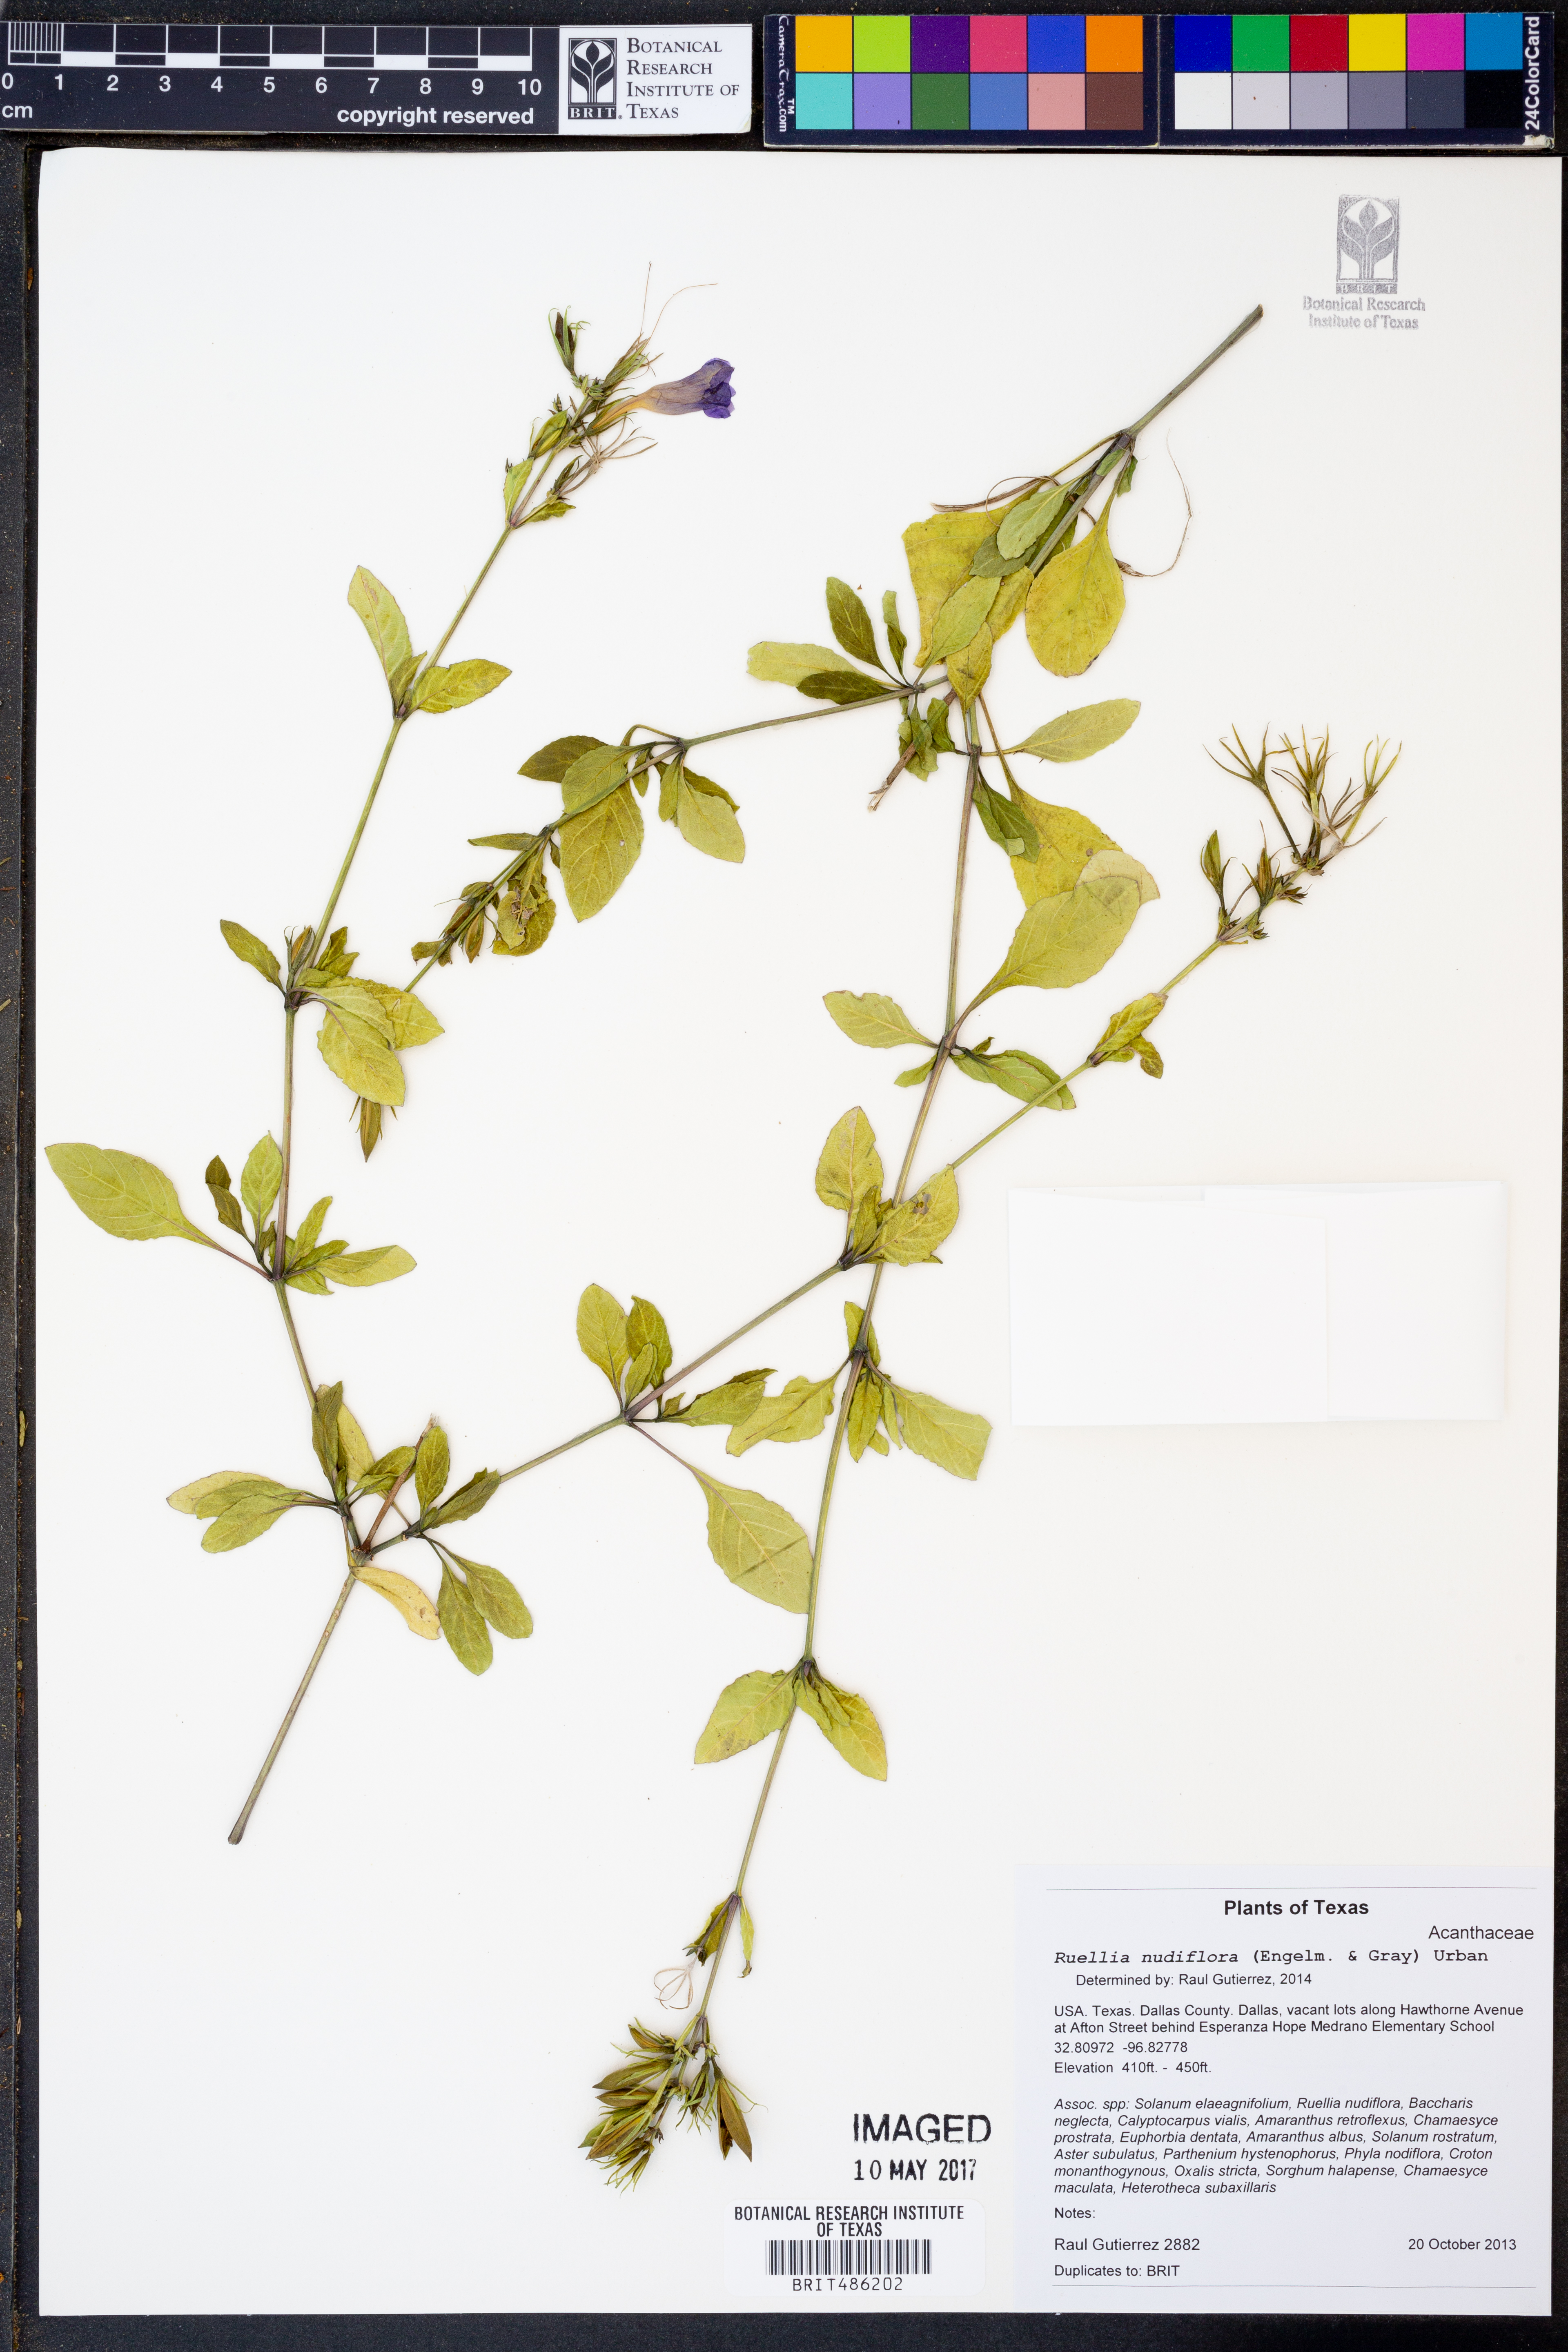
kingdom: Plantae
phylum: Tracheophyta
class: Magnoliopsida
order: Lamiales
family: Acanthaceae
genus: Ruellia
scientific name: Ruellia ciliatiflora
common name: Hairyflower wild petunia
